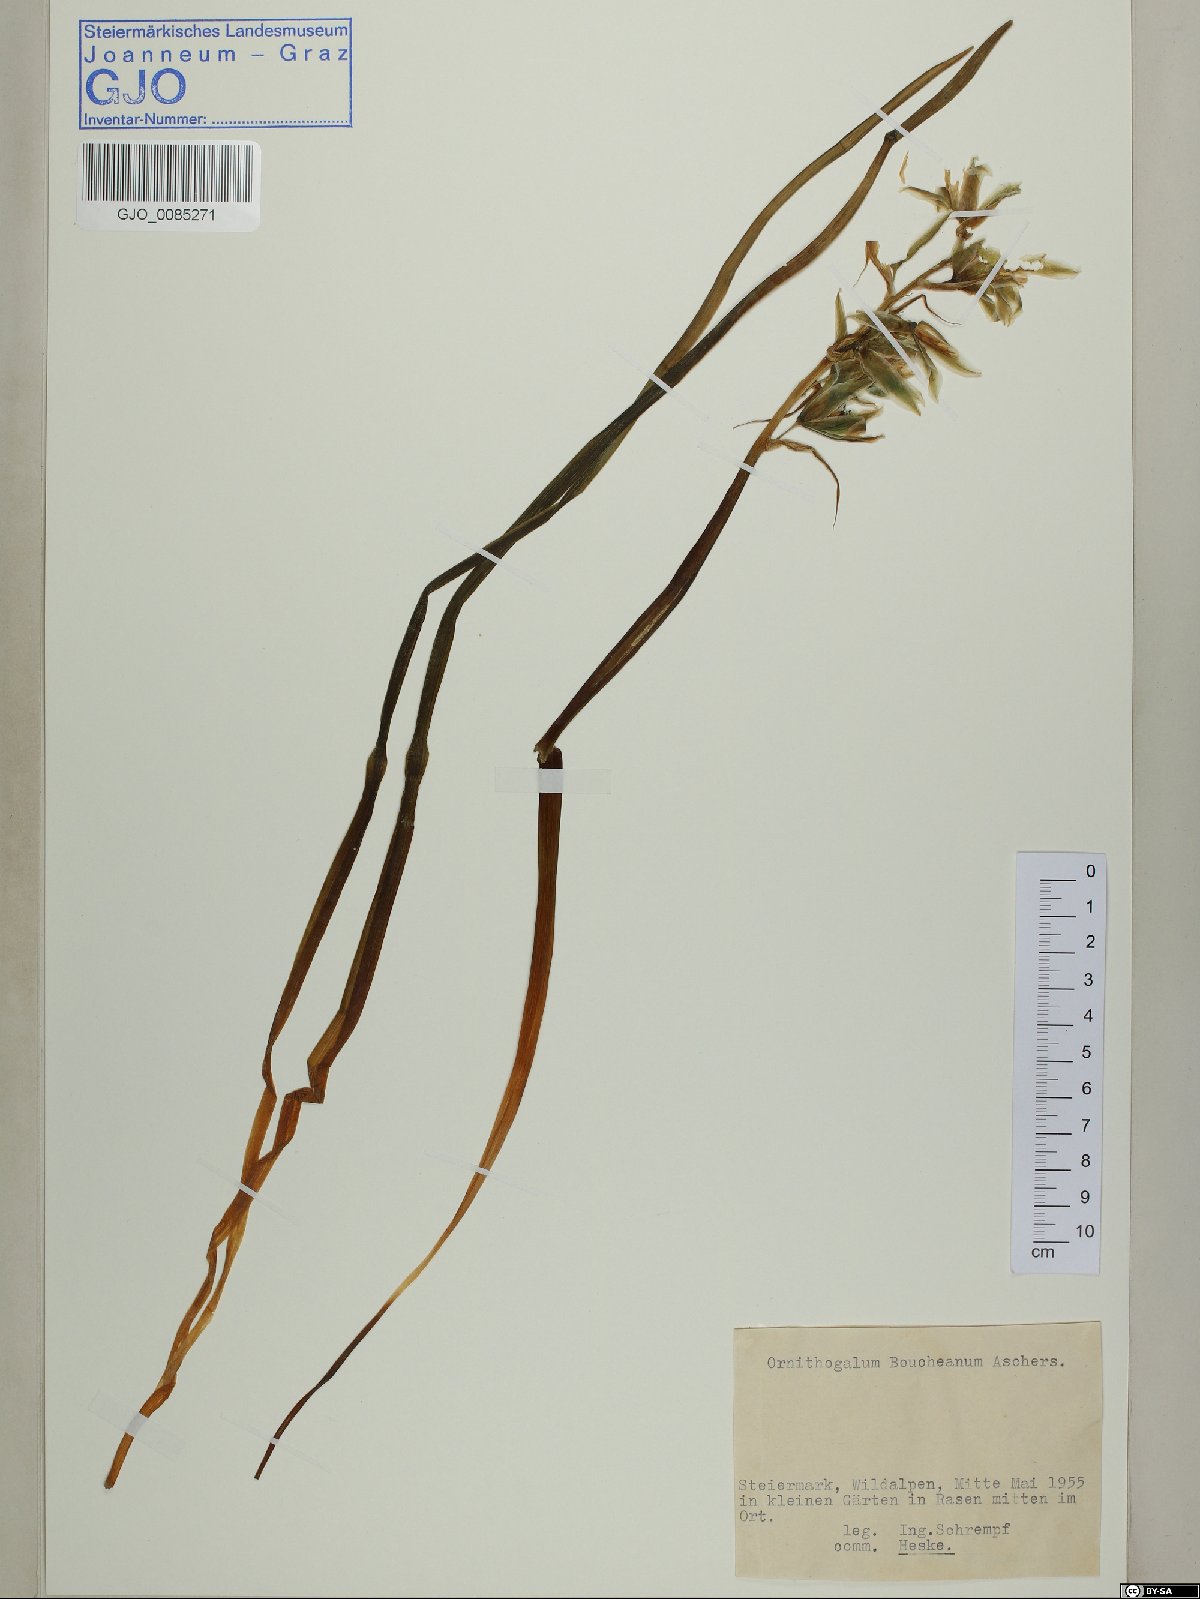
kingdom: Plantae
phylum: Tracheophyta
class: Liliopsida
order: Asparagales
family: Asparagaceae
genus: Ornithogalum
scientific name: Ornithogalum boucheanum
